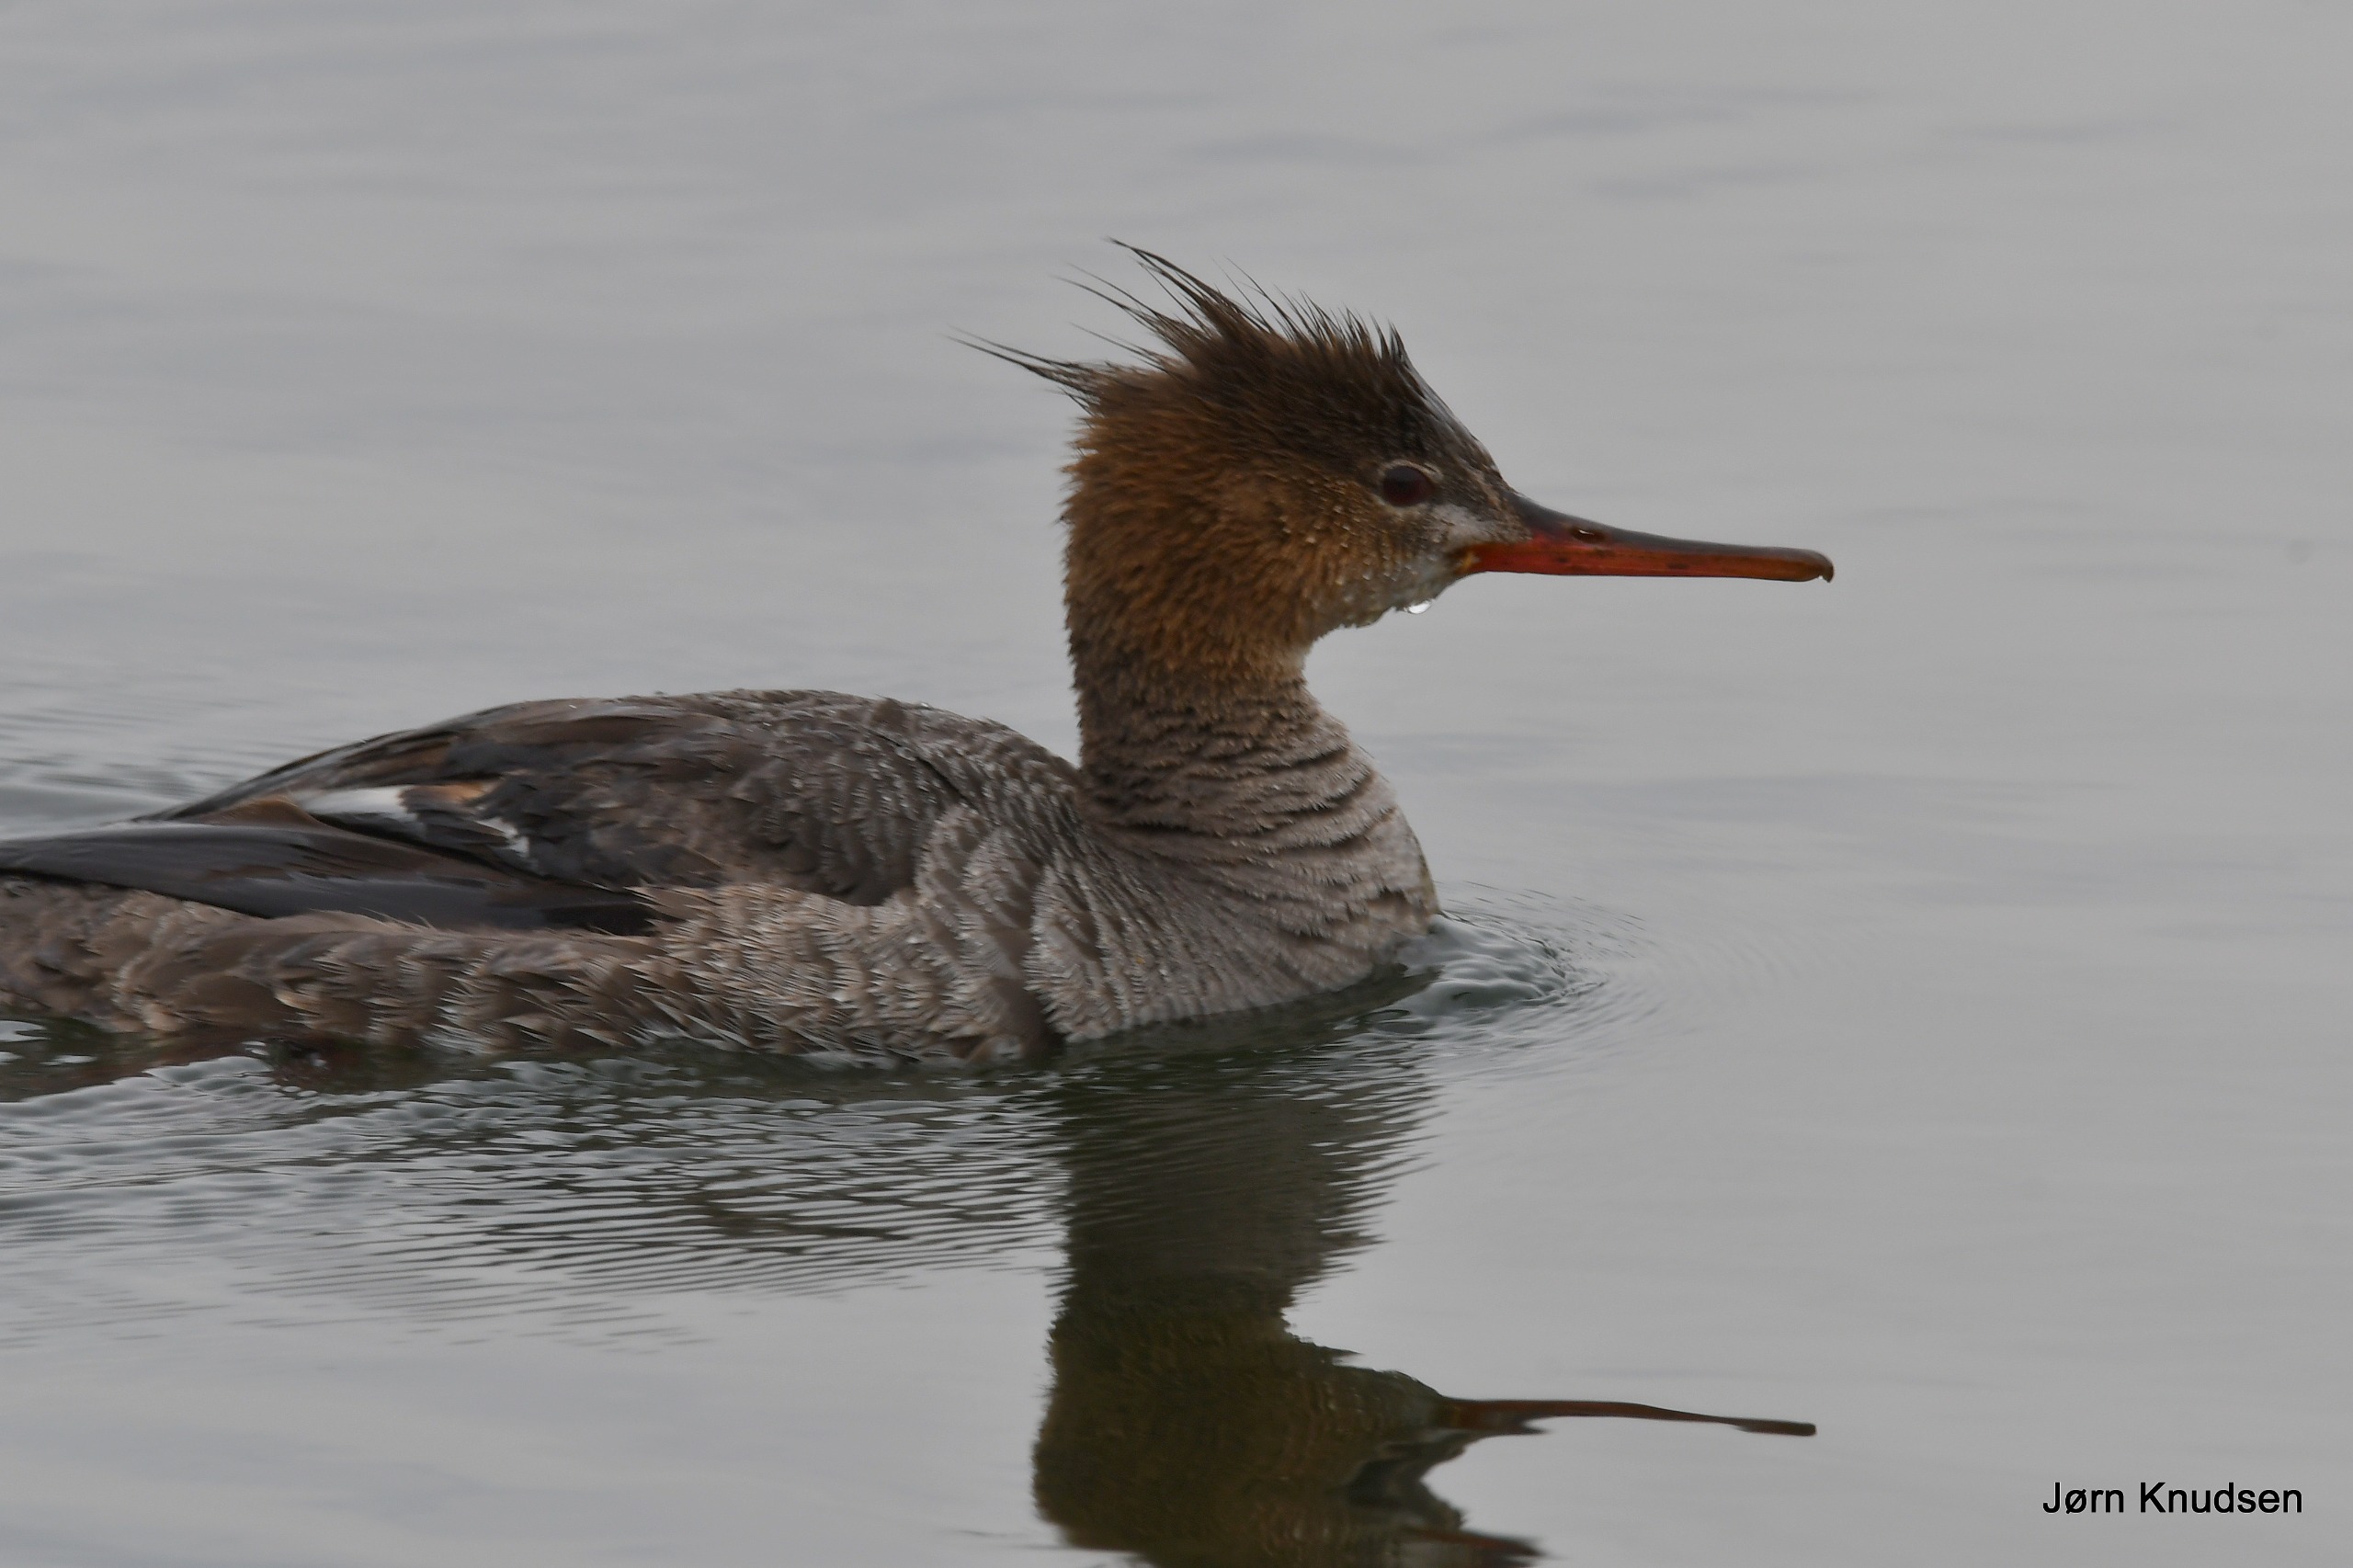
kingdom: Animalia
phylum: Chordata
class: Aves
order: Anseriformes
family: Anatidae
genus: Mergus
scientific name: Mergus serrator
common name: Toppet skallesluger
